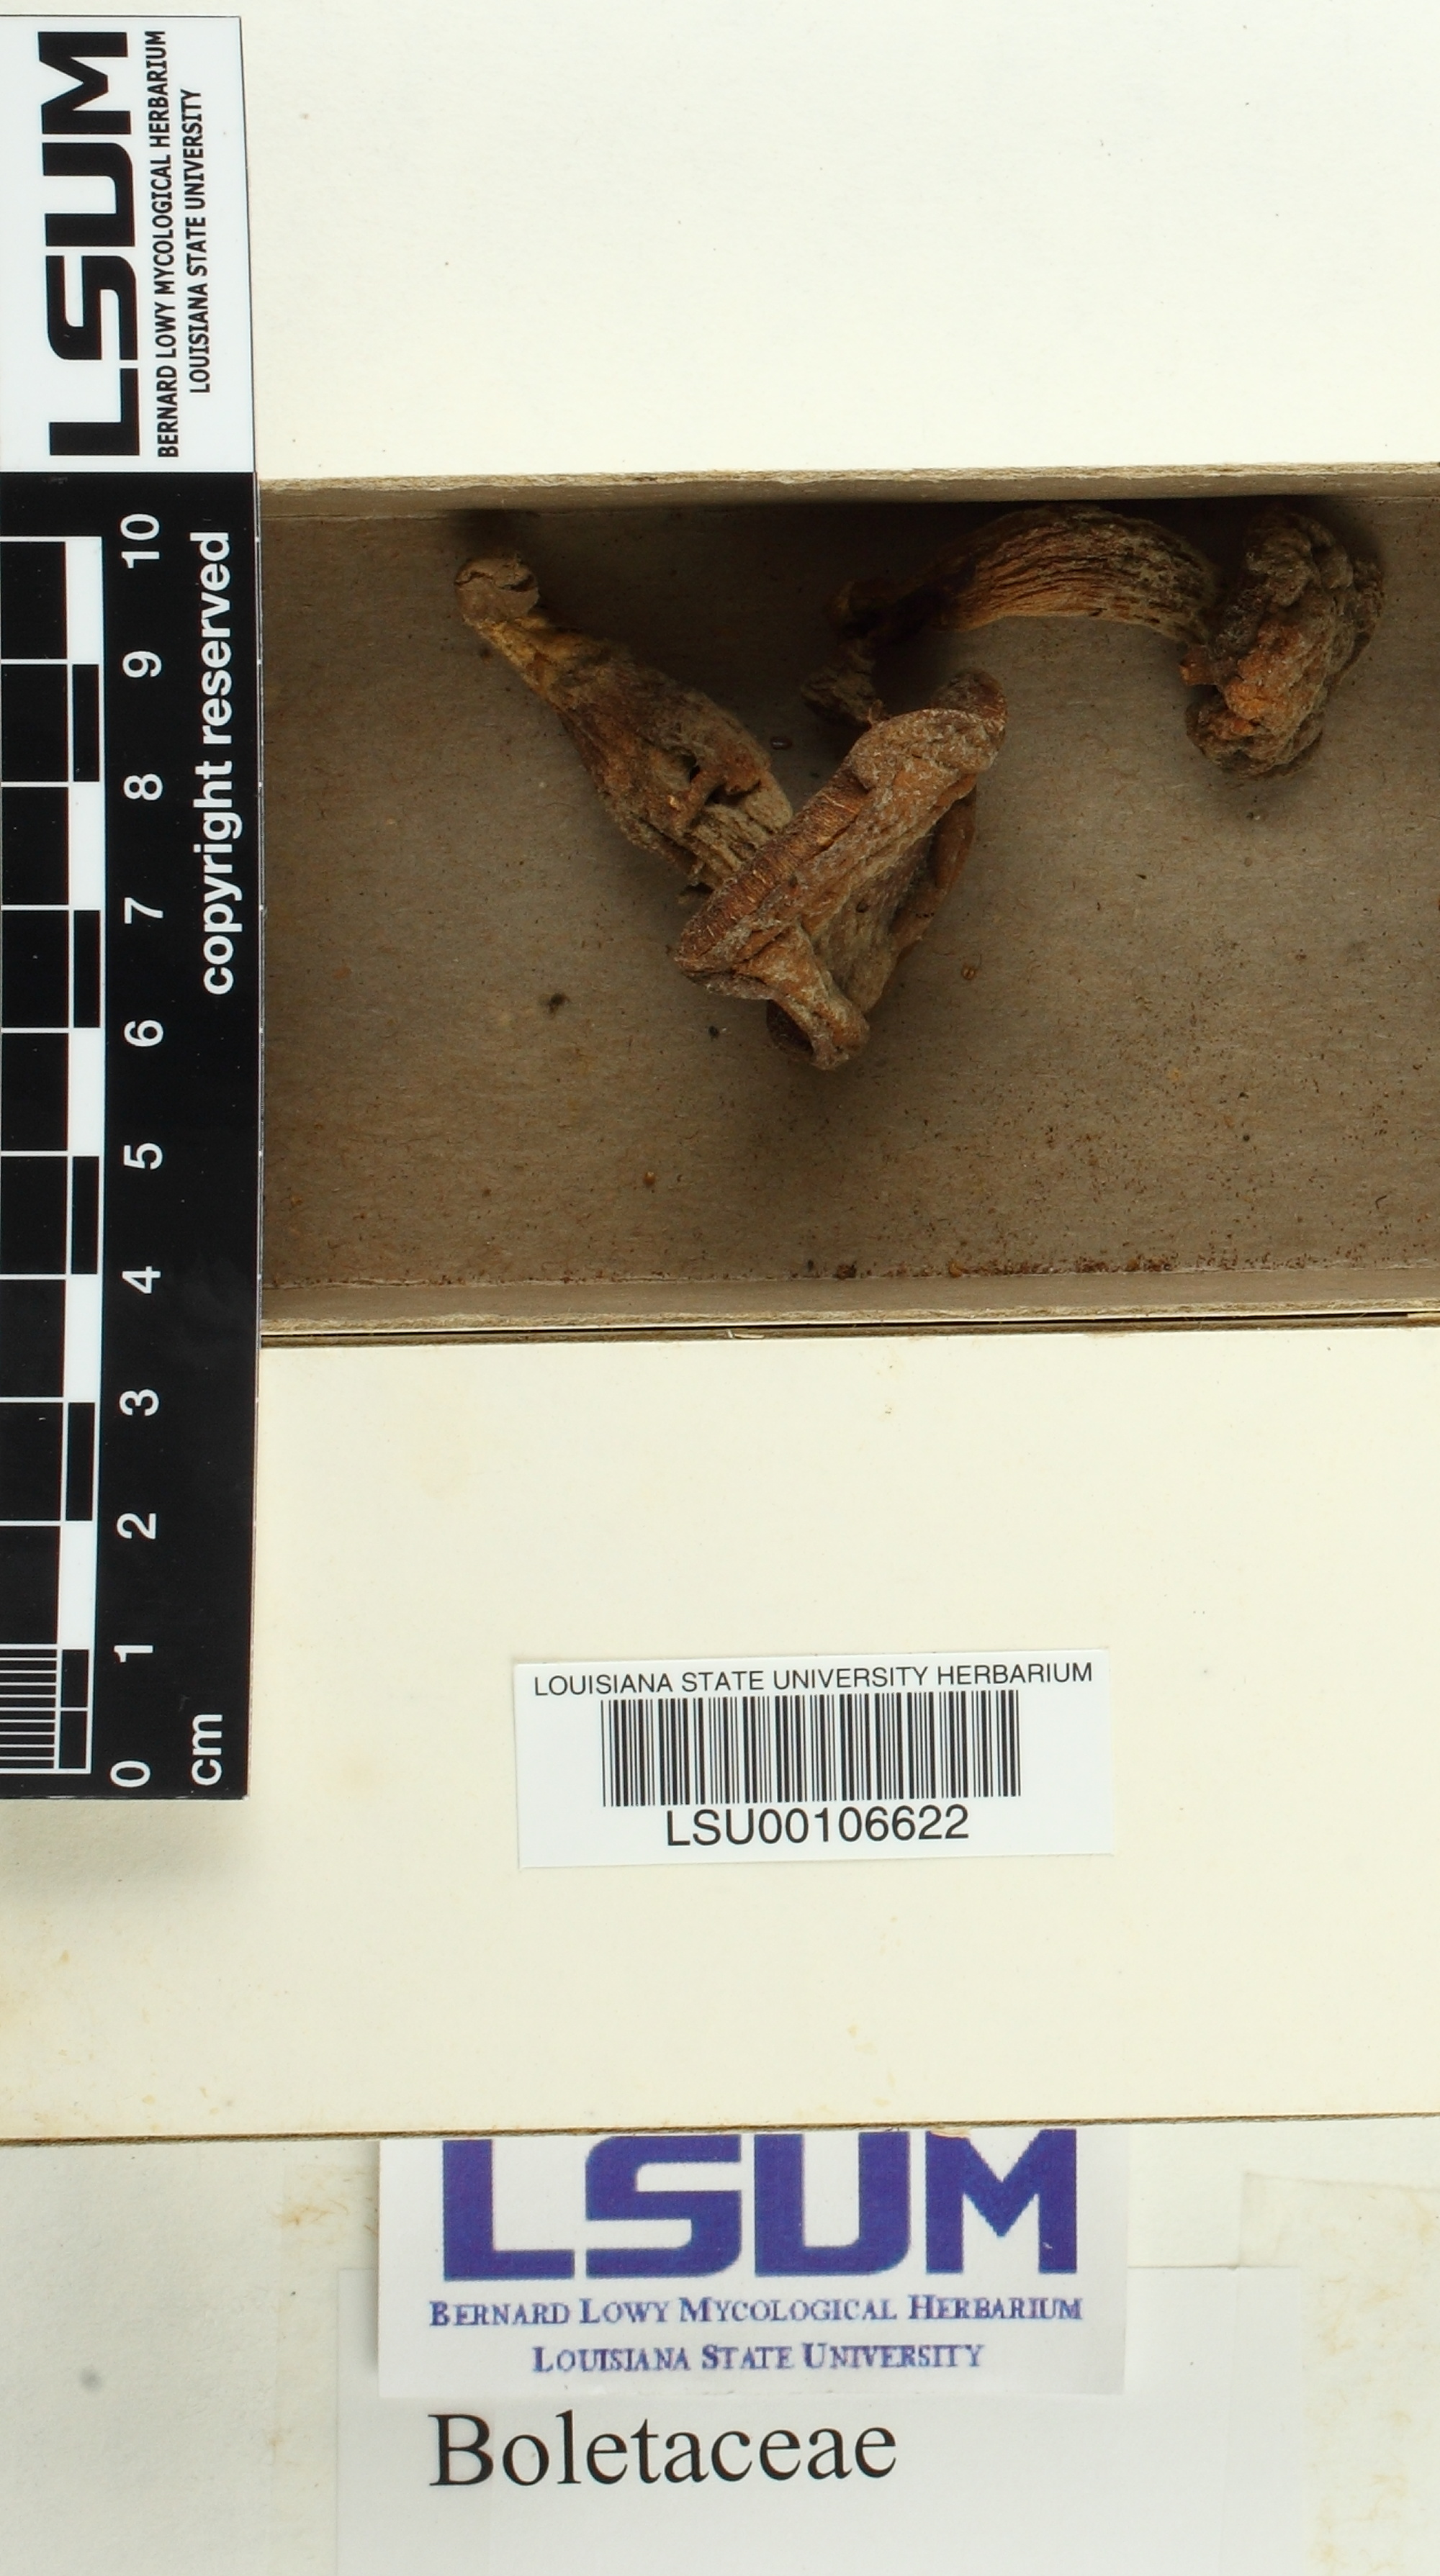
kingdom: Fungi
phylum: Basidiomycota
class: Agaricomycetes
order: Boletales
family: Boletaceae
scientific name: Boletaceae
